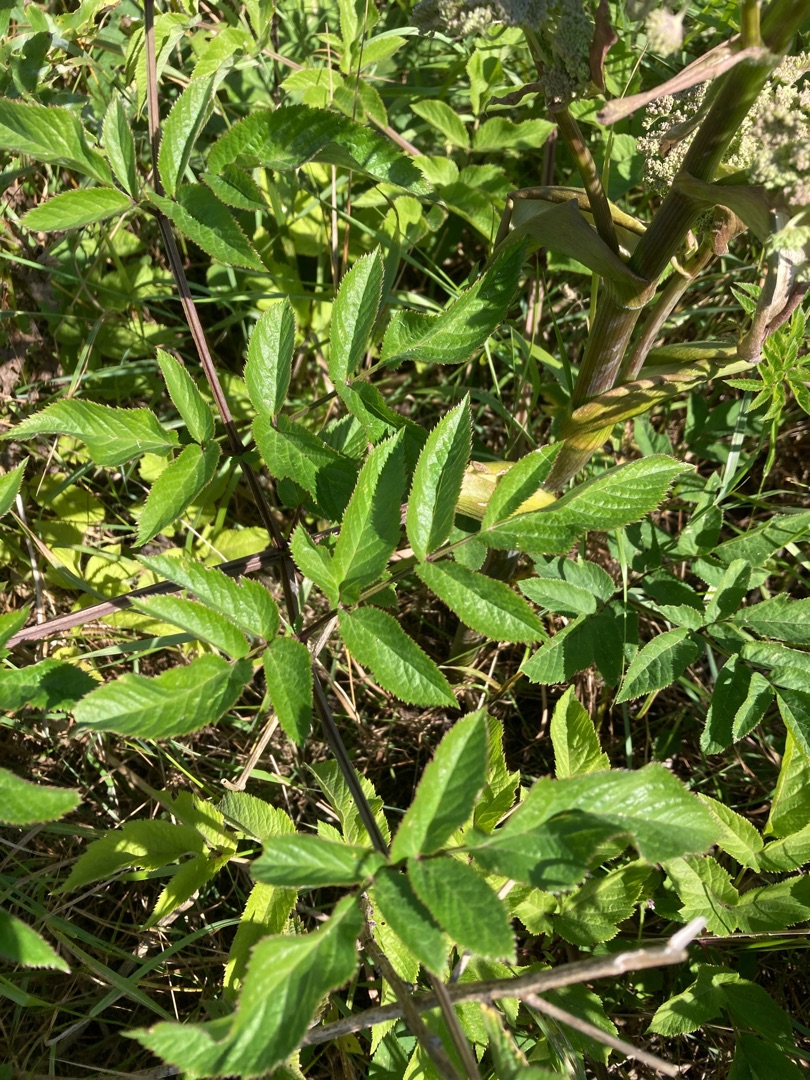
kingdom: Plantae
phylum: Tracheophyta
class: Magnoliopsida
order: Apiales
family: Apiaceae
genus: Angelica
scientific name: Angelica sylvestris
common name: Angelik
